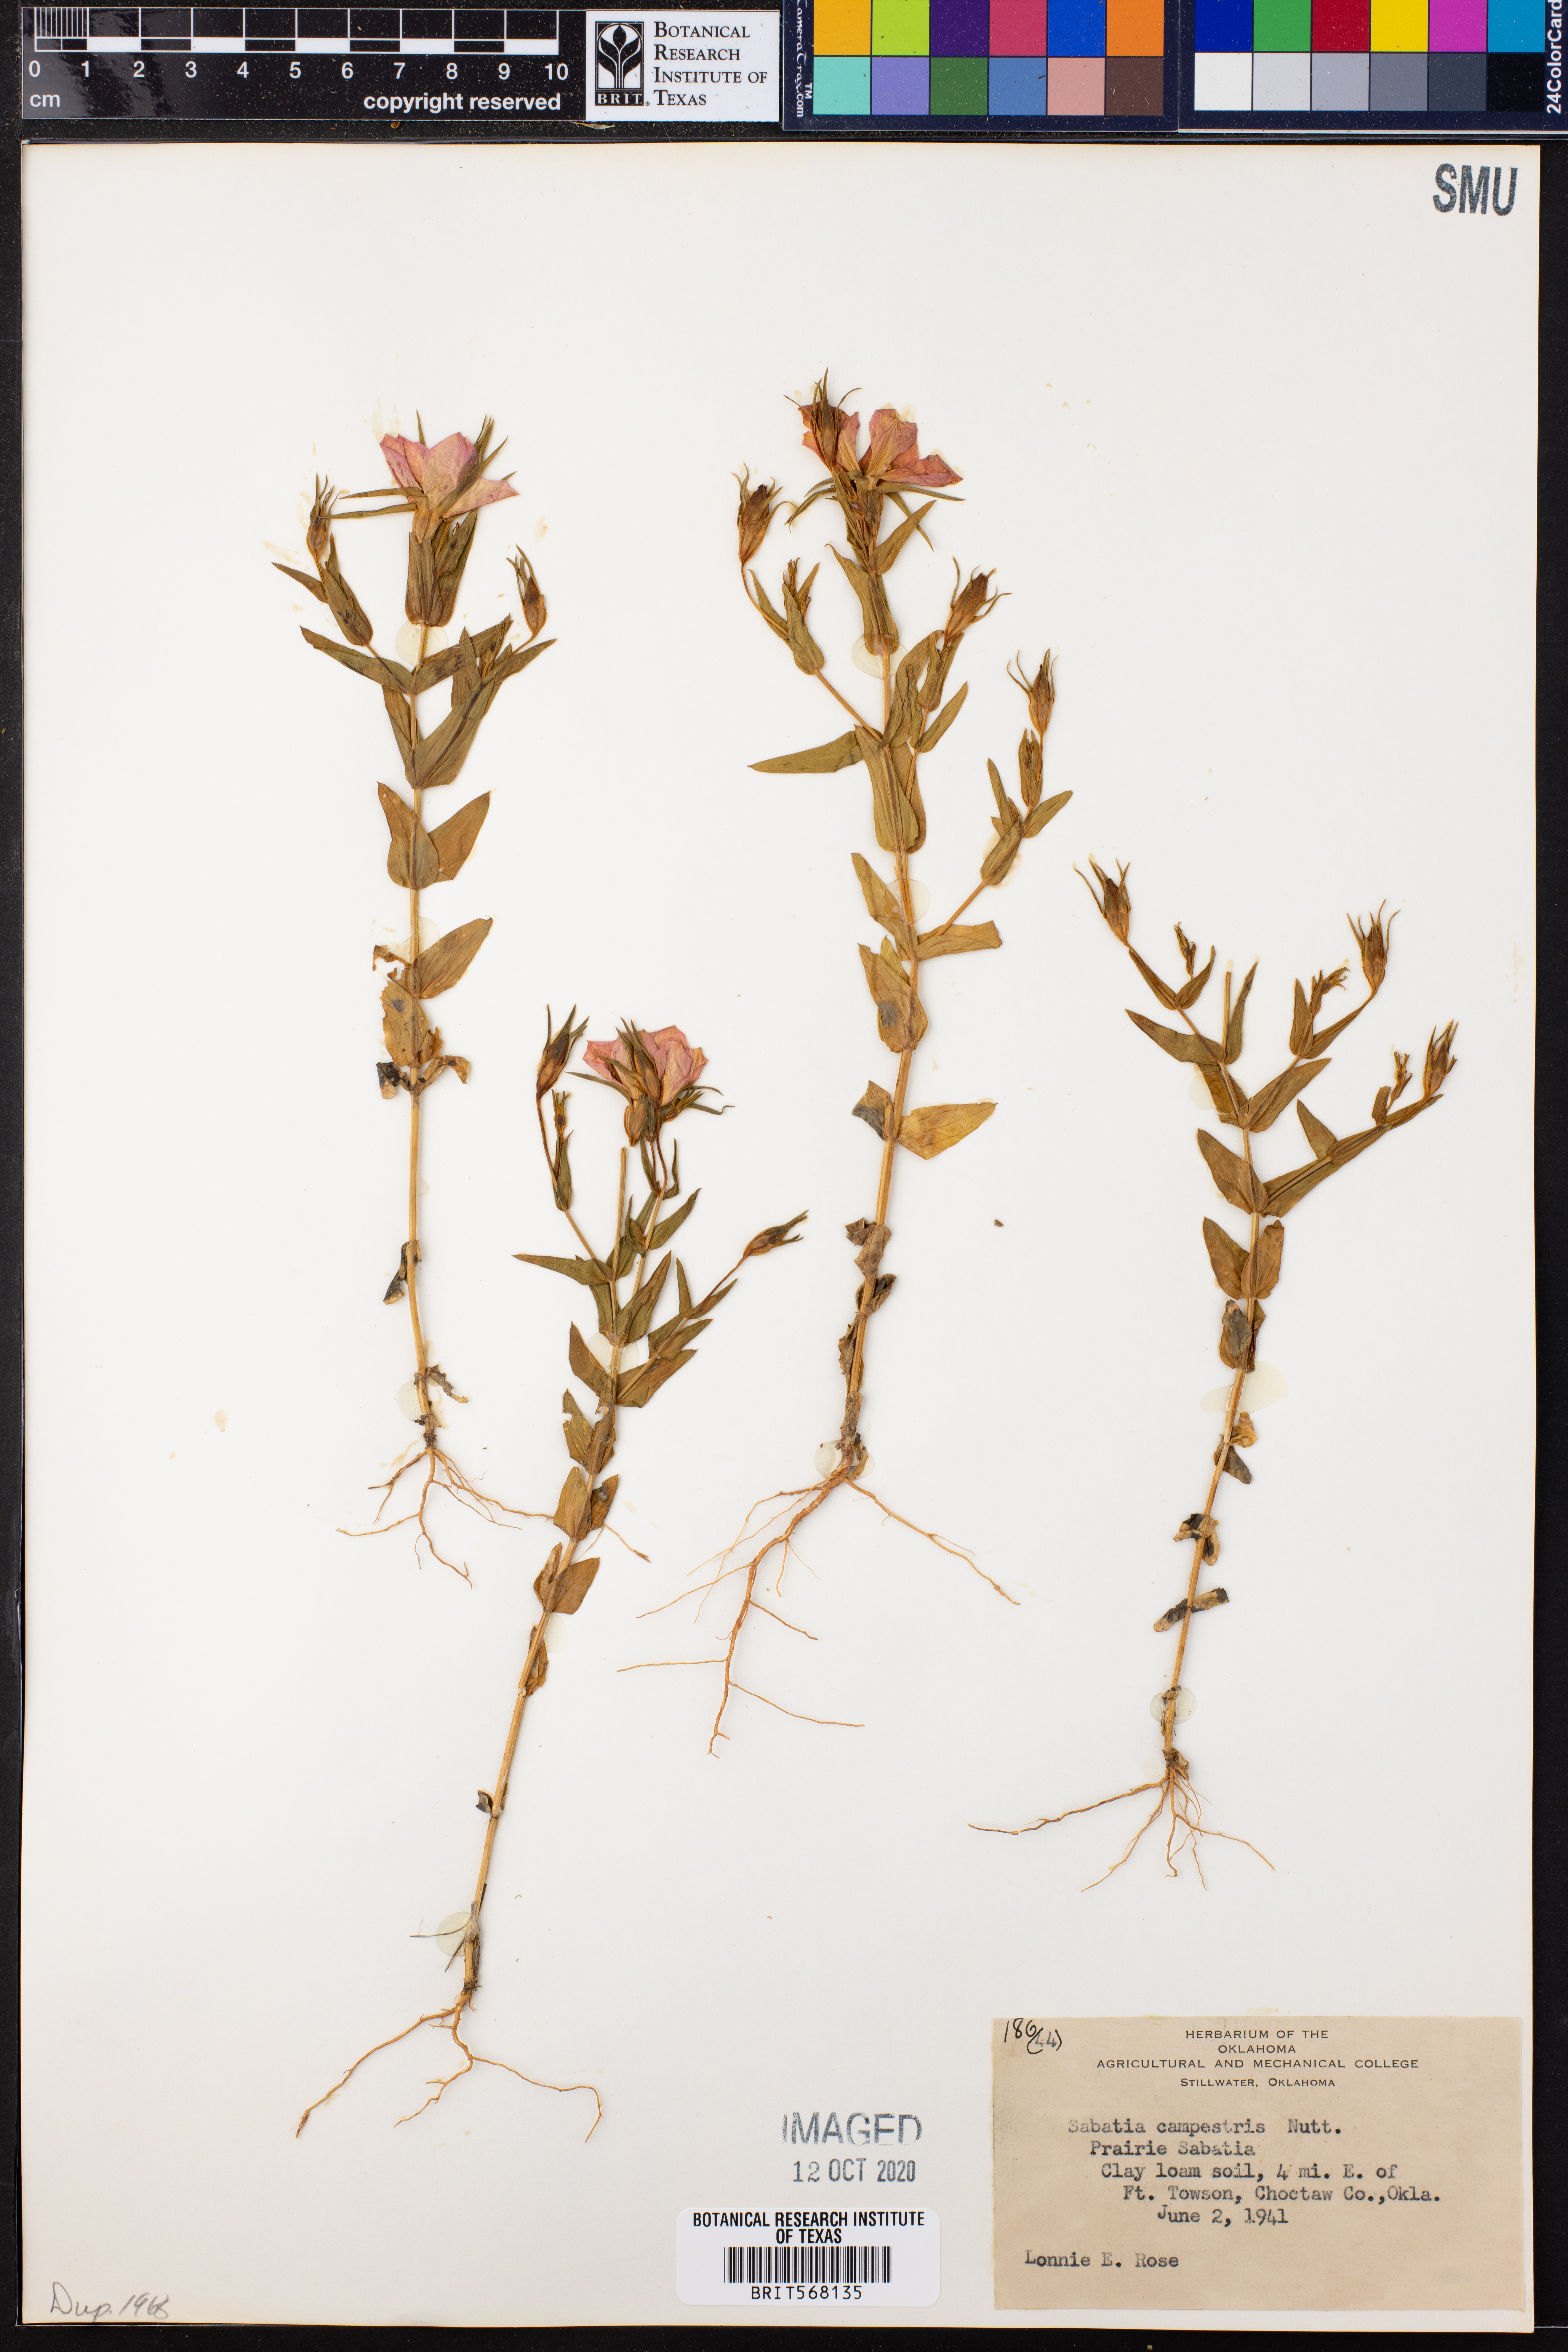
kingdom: Plantae
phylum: Tracheophyta
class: Magnoliopsida
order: Gentianales
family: Gentianaceae
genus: Sabatia
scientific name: Sabatia campestris
